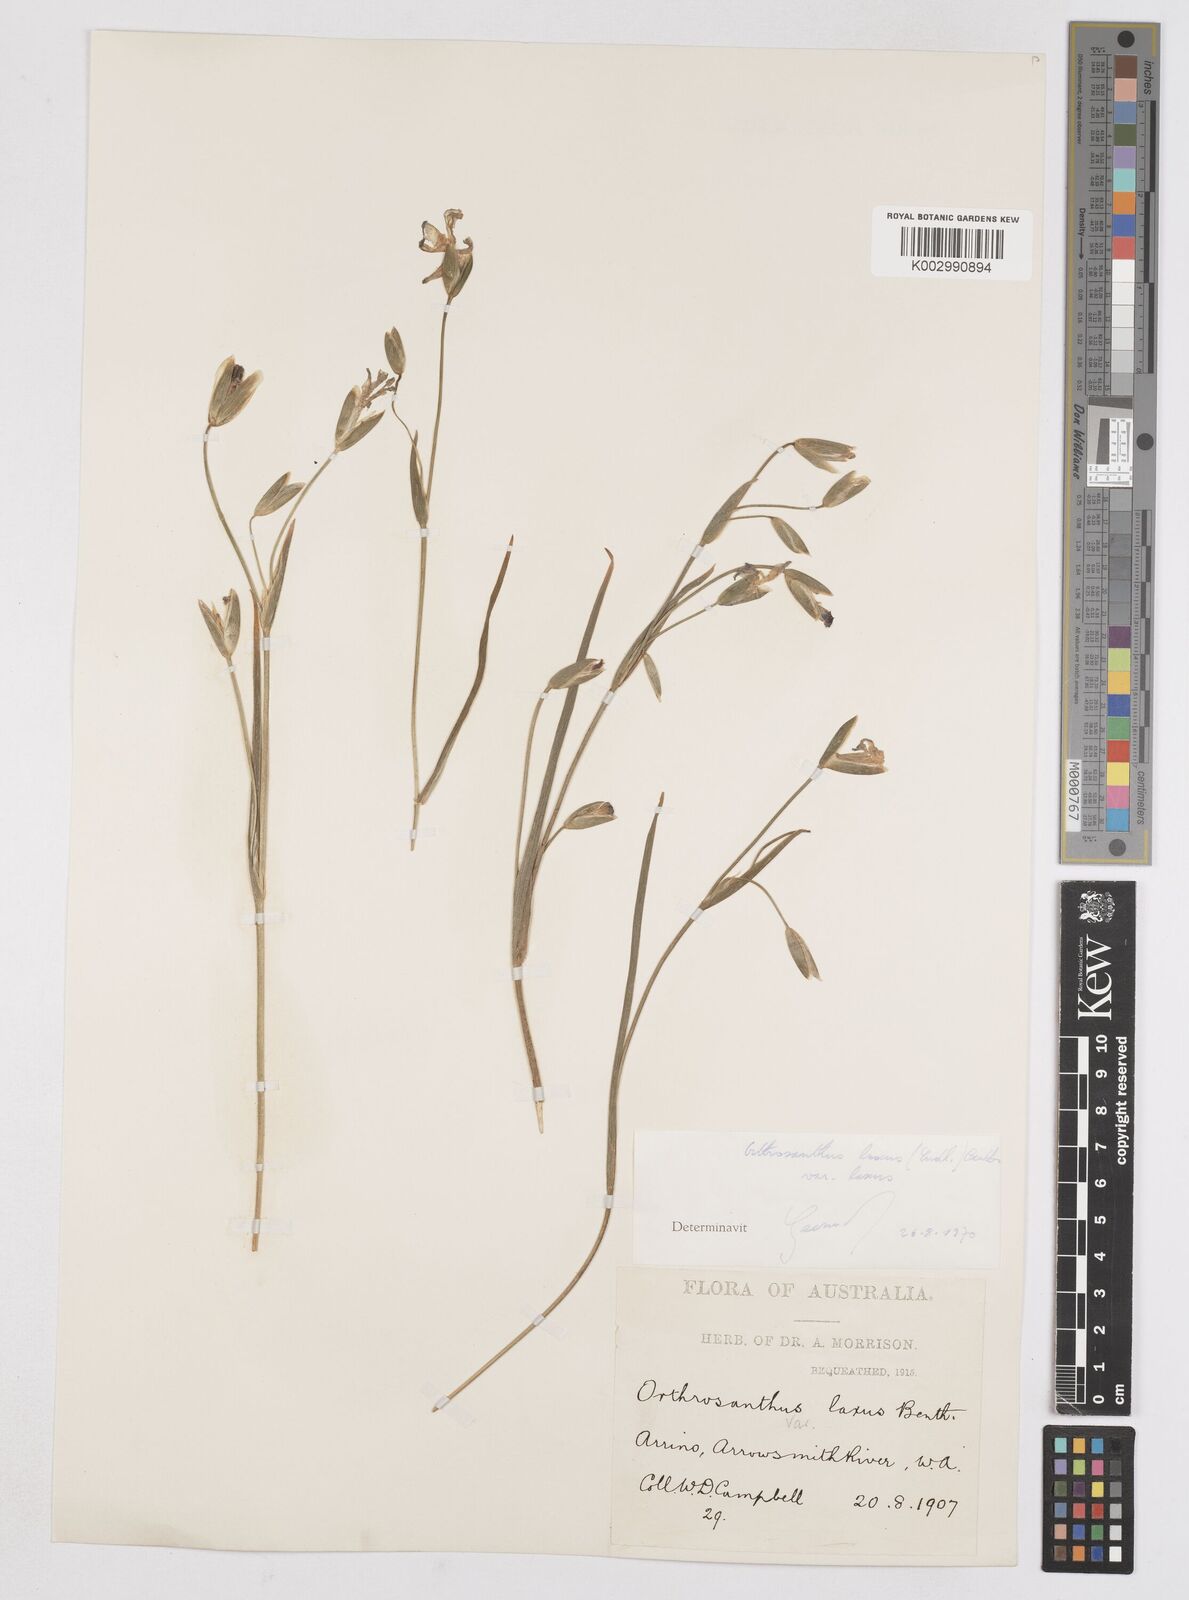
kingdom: Plantae
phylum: Tracheophyta
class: Liliopsida
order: Asparagales
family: Iridaceae
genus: Orthrosanthus
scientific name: Orthrosanthus laxus
